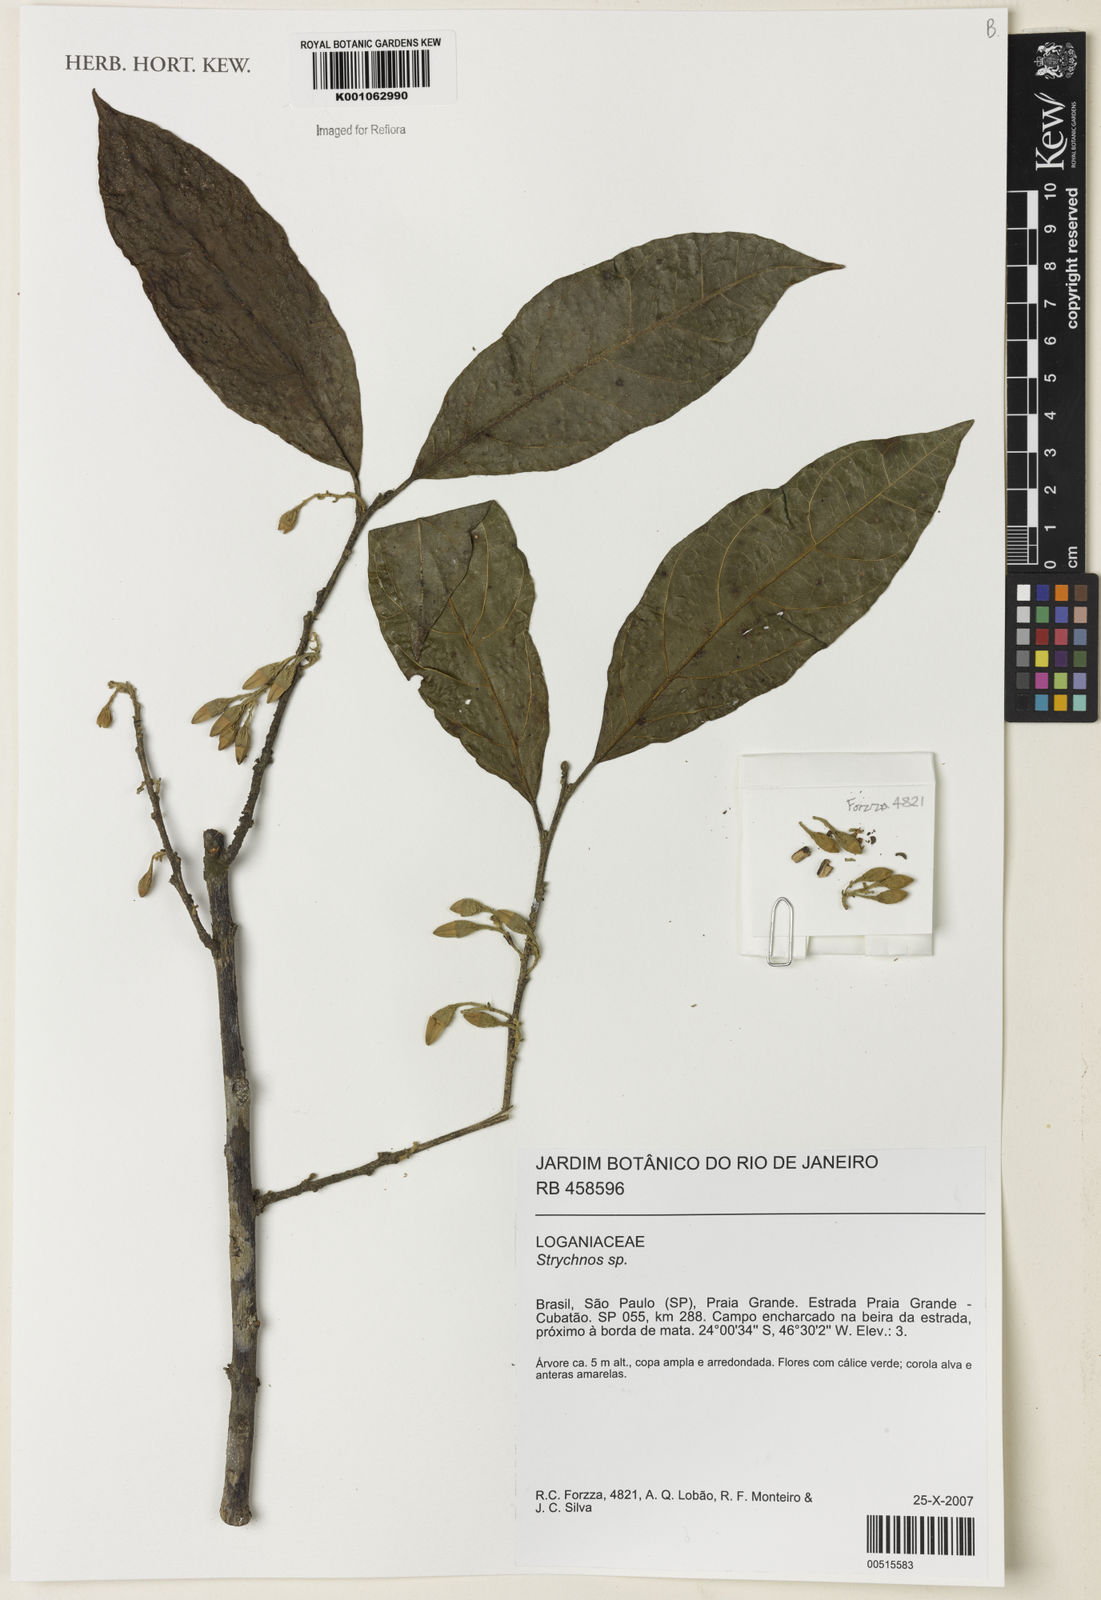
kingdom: Plantae
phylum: Tracheophyta
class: Magnoliopsida
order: Ericales
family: Styracaceae
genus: Styrax
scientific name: Styrax
